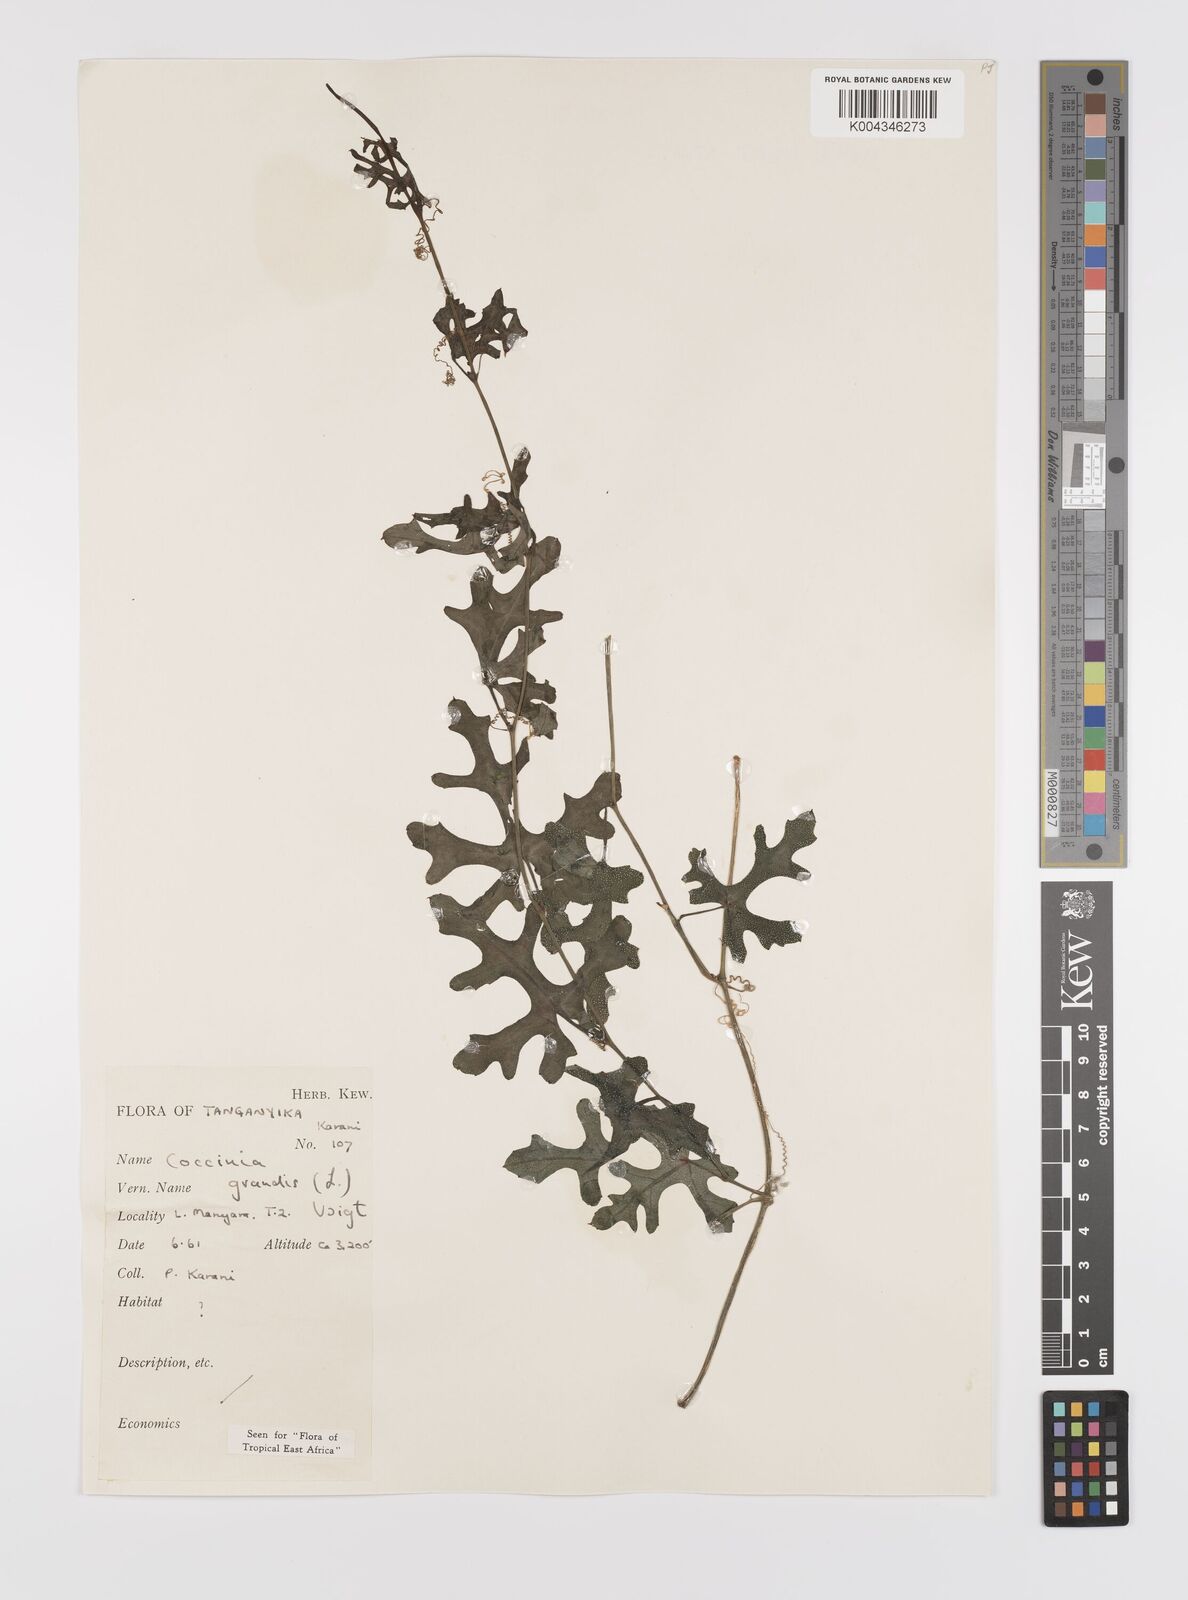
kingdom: Plantae
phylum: Tracheophyta
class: Magnoliopsida
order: Cucurbitales
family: Cucurbitaceae
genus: Coccinia
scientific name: Coccinia grandis
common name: Ivy gourd
